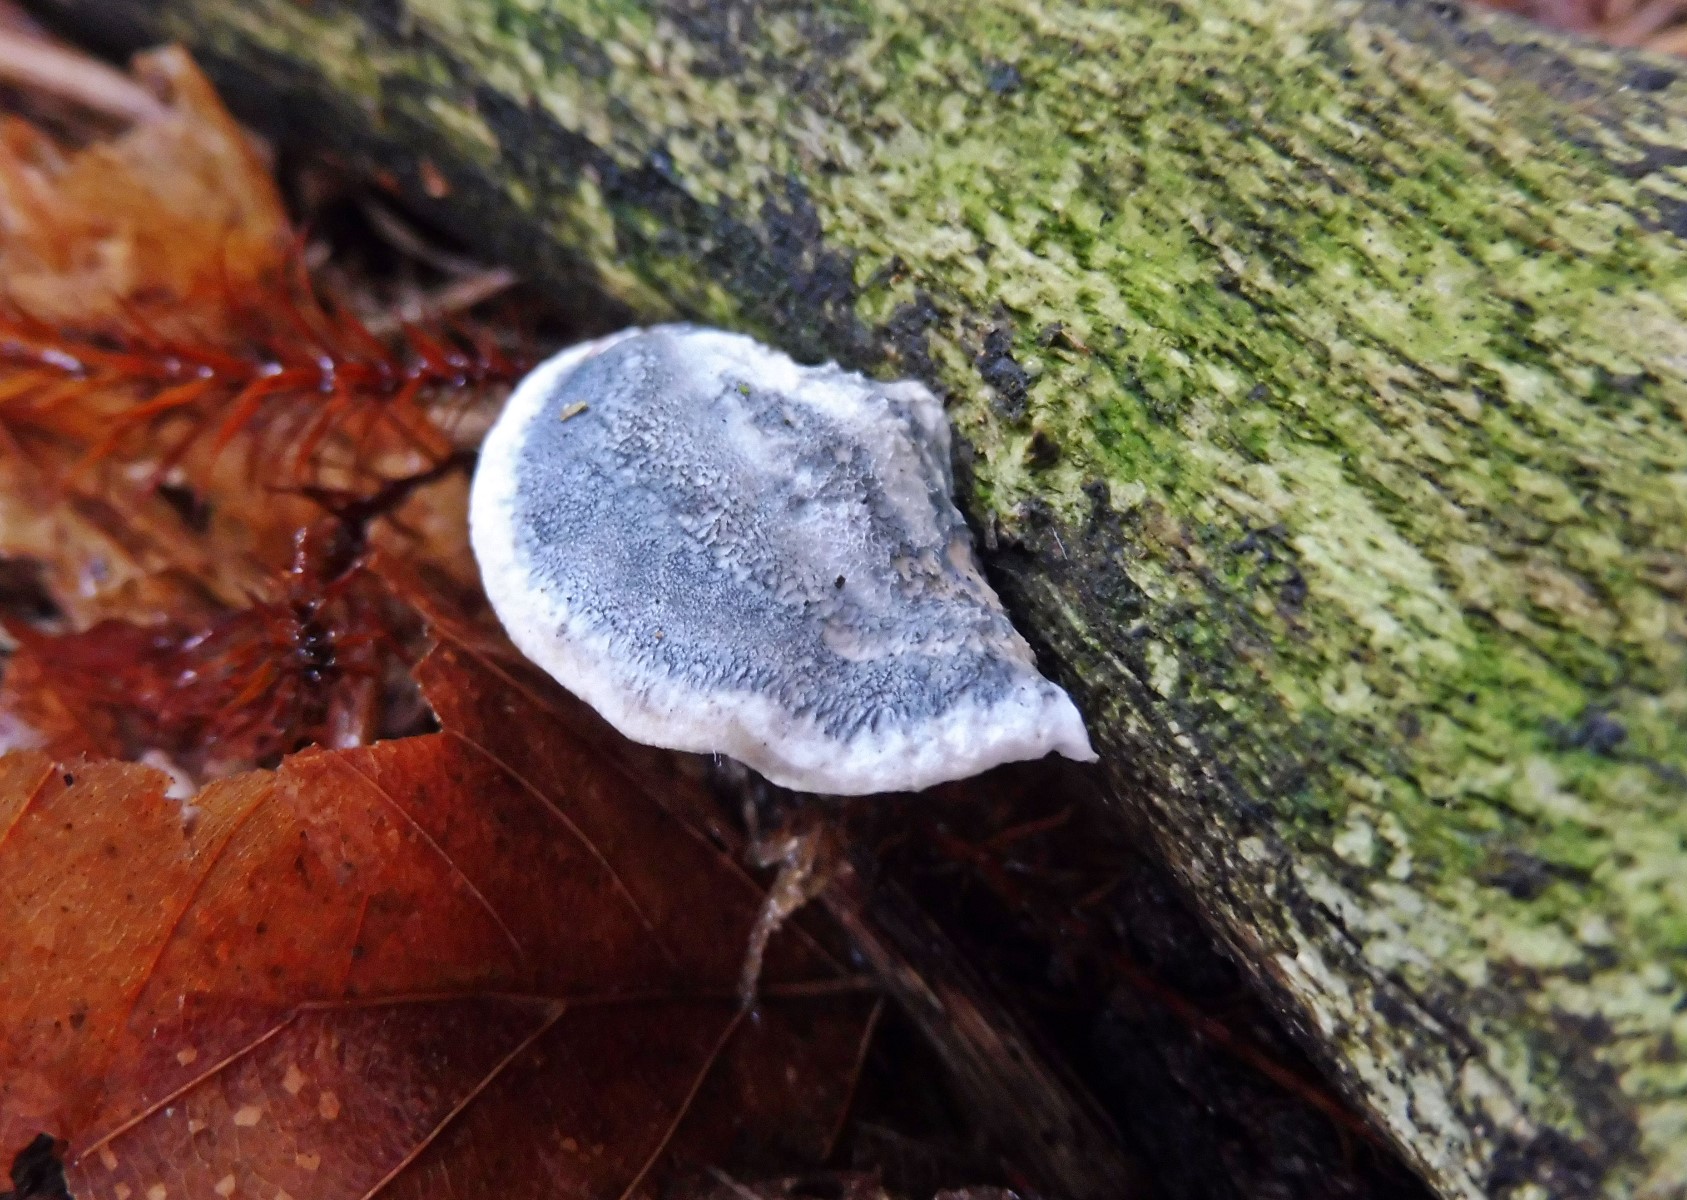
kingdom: Fungi
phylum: Basidiomycota
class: Agaricomycetes
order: Polyporales
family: Polyporaceae
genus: Cyanosporus
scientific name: Cyanosporus alni
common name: blegblå kødporesvamp
